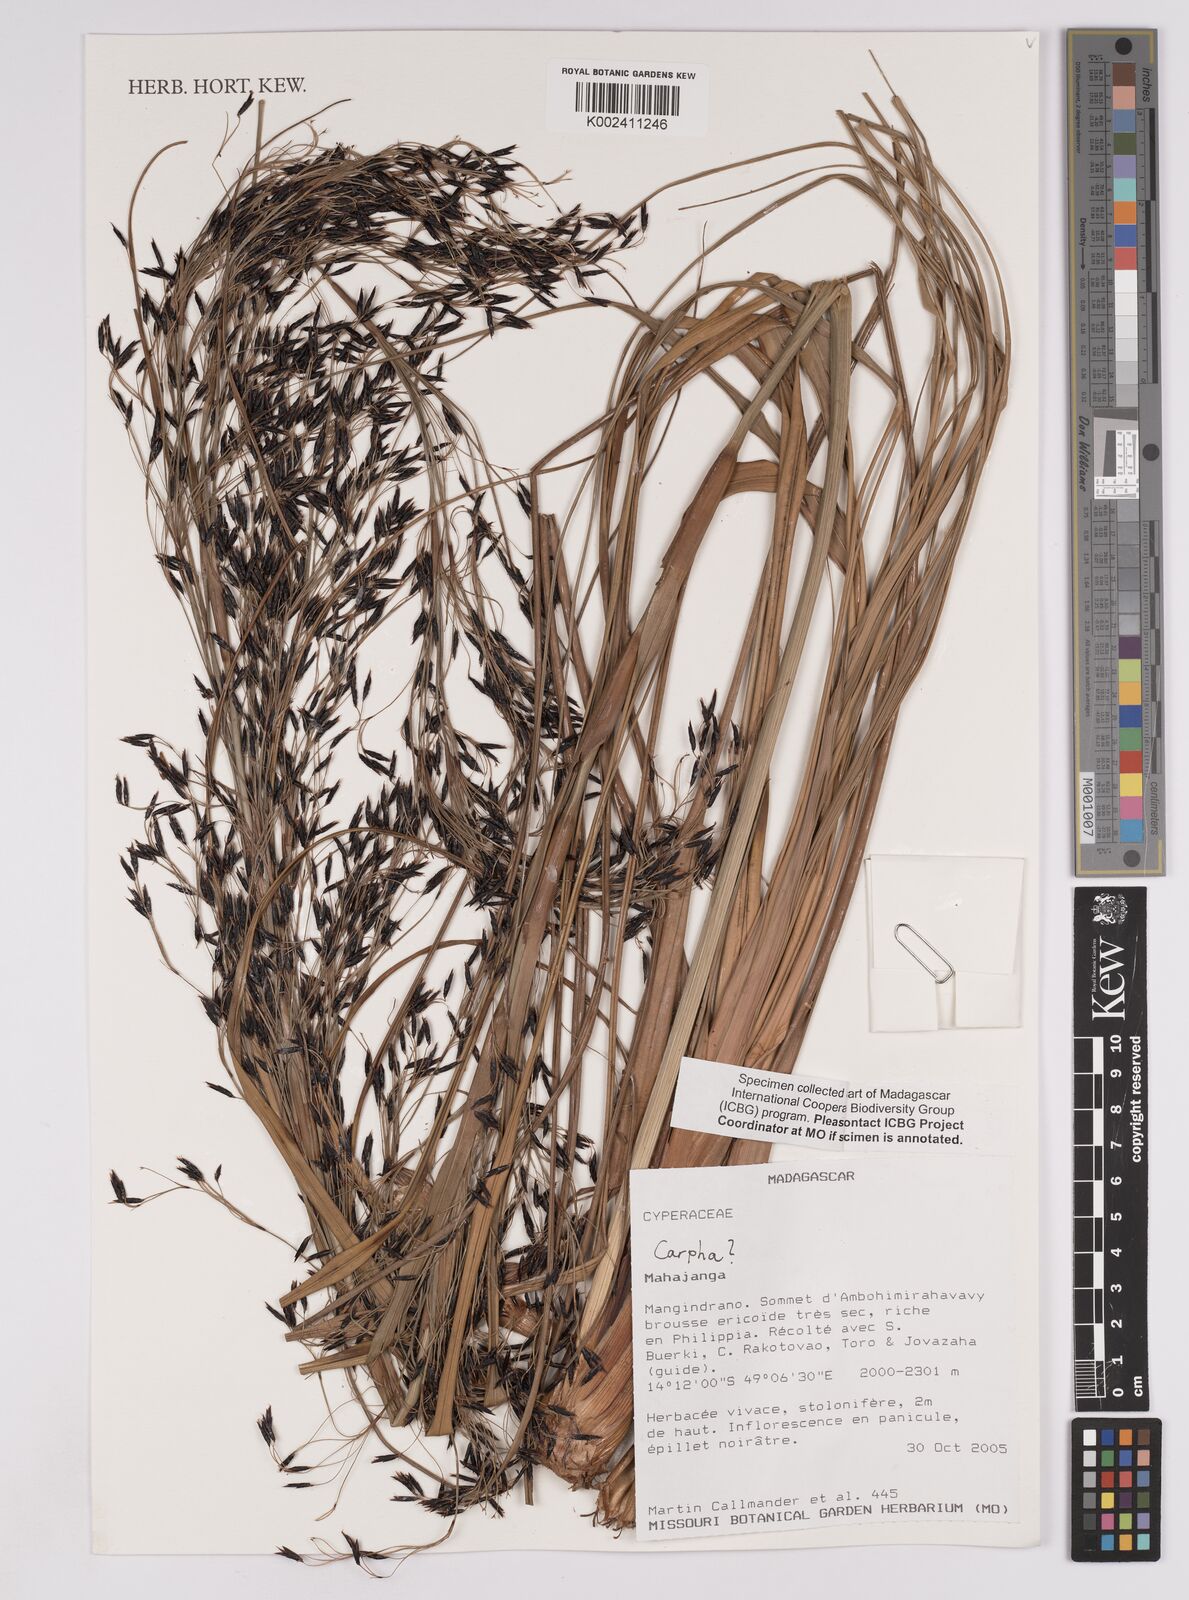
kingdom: Plantae
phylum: Tracheophyta
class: Liliopsida
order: Poales
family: Cyperaceae
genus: Carpha
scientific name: Carpha
